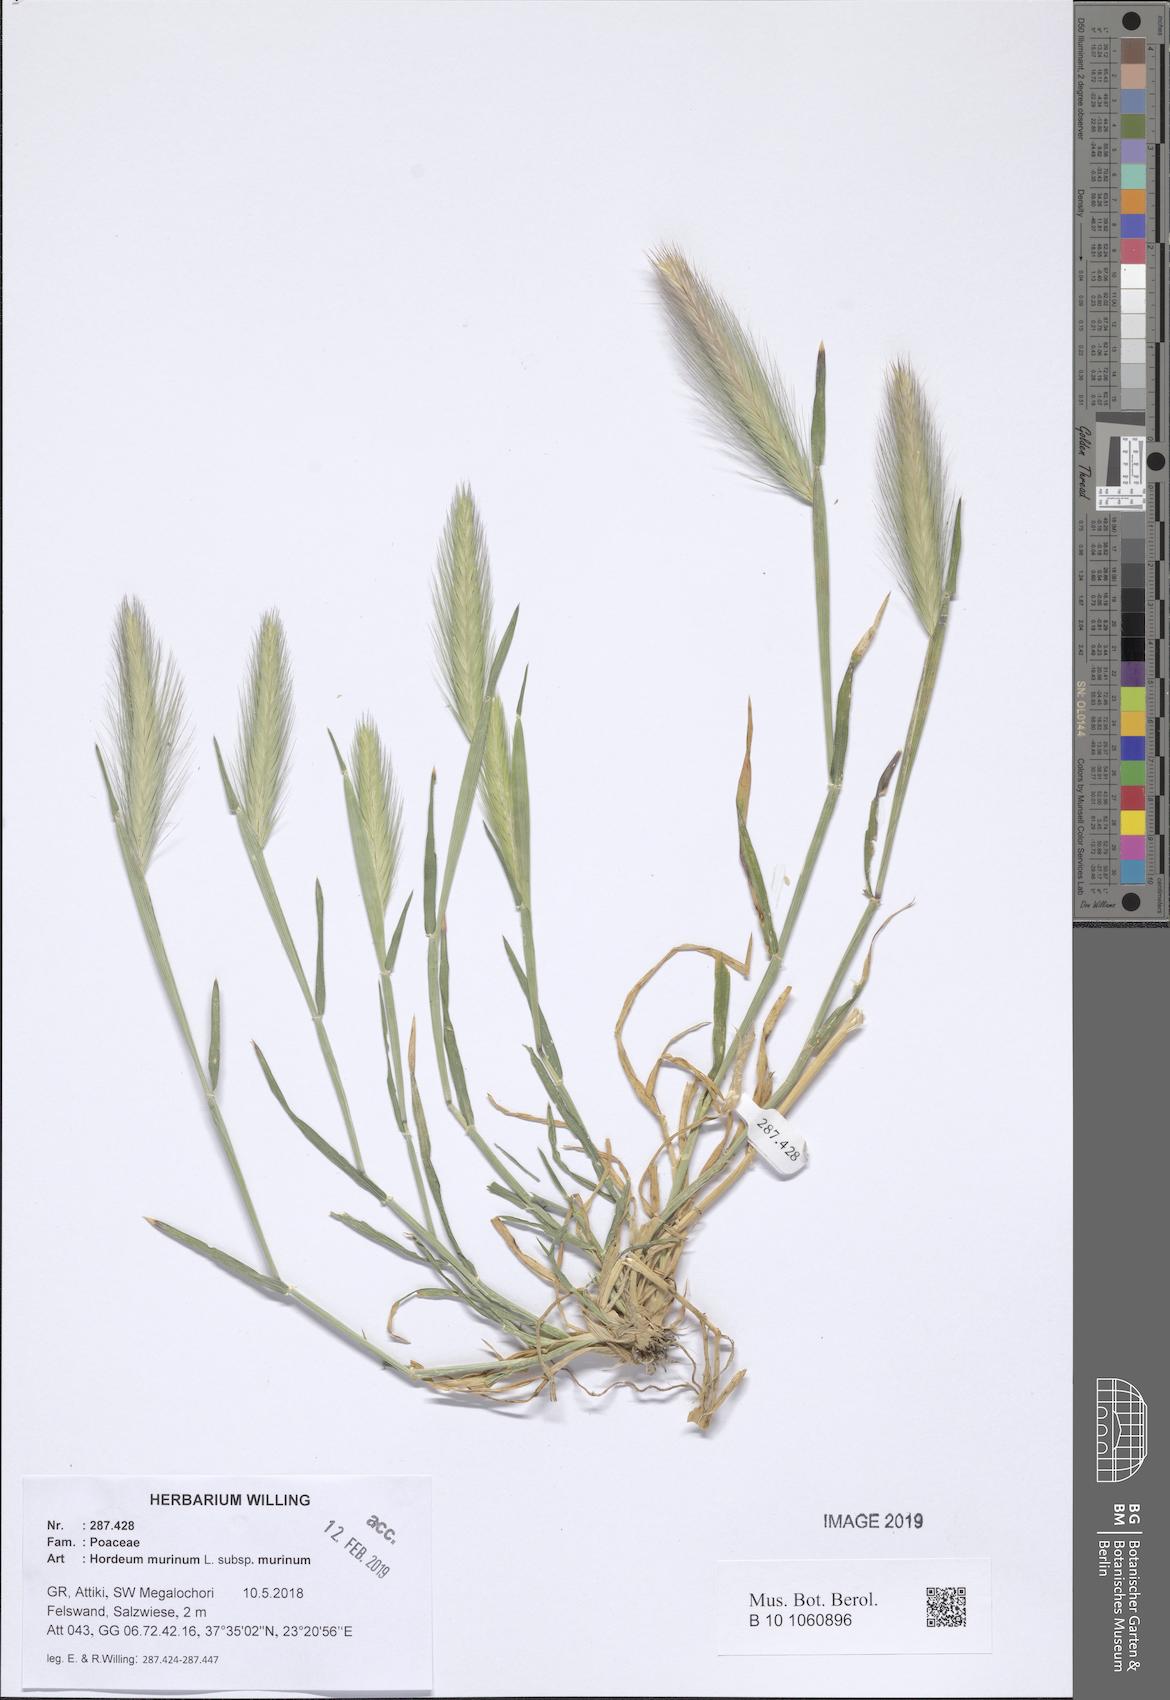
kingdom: Plantae
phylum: Tracheophyta
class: Liliopsida
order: Poales
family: Poaceae
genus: Hordeum
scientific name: Hordeum murinum
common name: Wall barley
